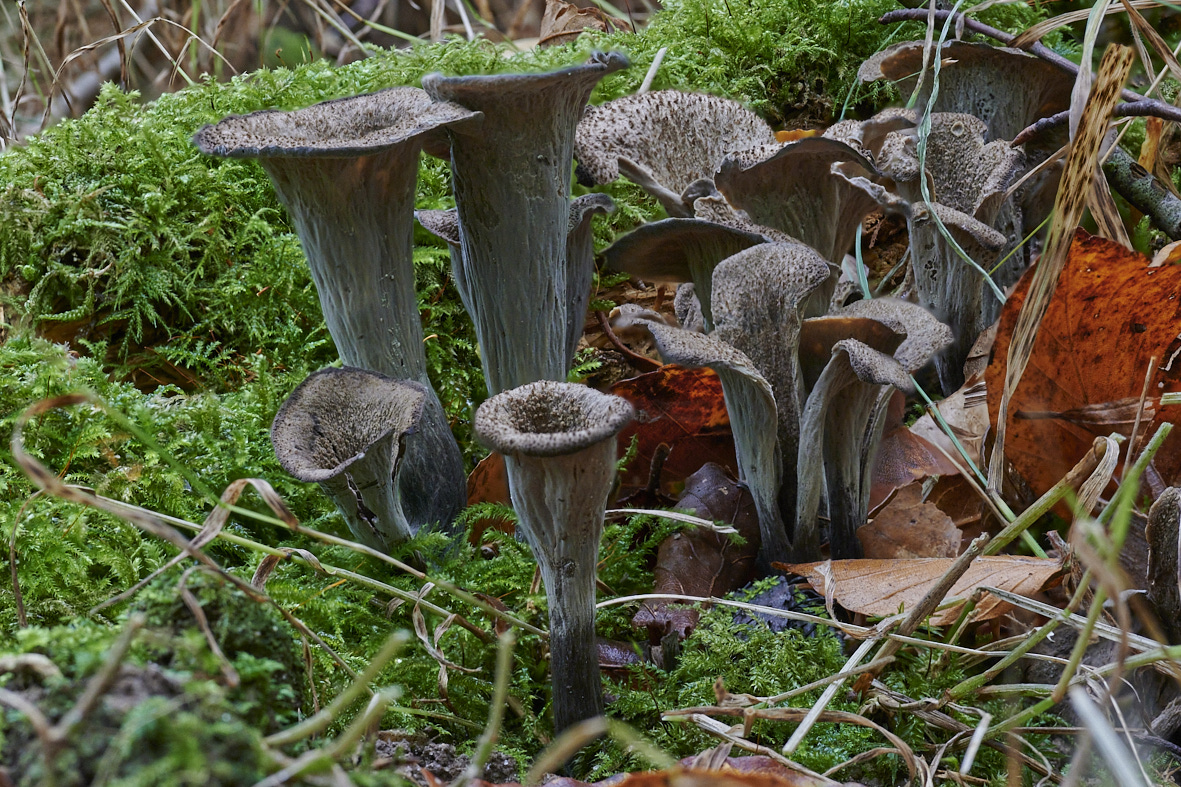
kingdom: Fungi
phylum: Basidiomycota
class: Agaricomycetes
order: Cantharellales
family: Hydnaceae
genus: Craterellus
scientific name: Craterellus cornucopioides
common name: trompetsvamp
